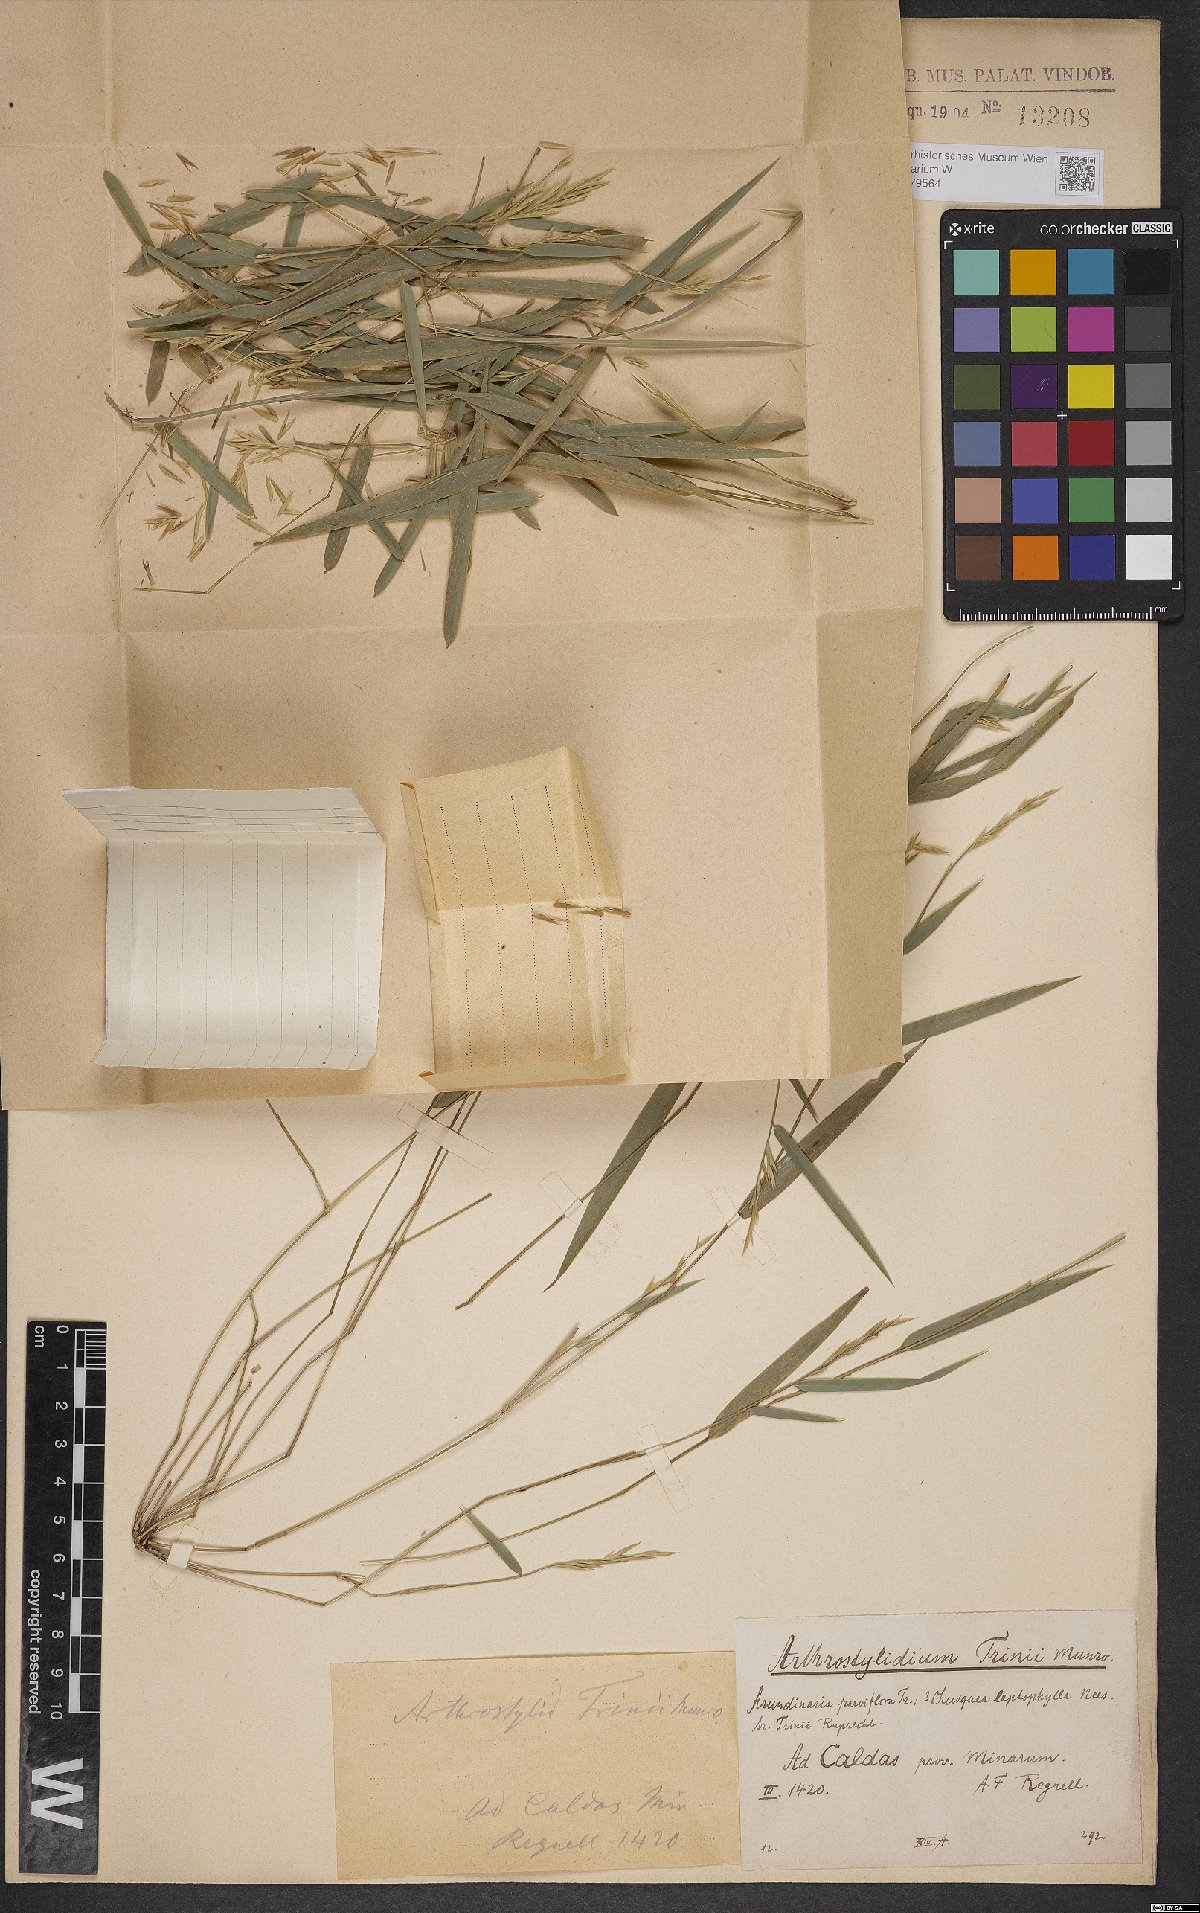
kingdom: Plantae
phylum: Tracheophyta
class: Liliopsida
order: Poales
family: Poaceae
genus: Rhipidocladum
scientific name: Rhipidocladum parviflorum
